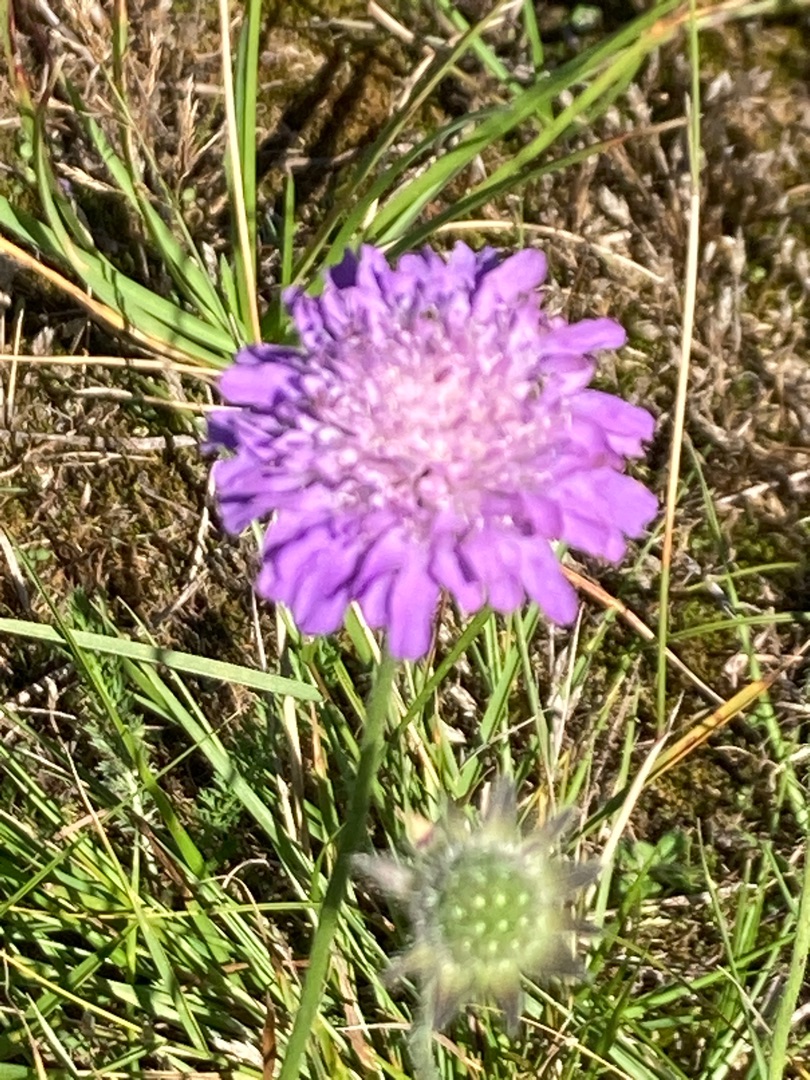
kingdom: Plantae
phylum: Tracheophyta
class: Magnoliopsida
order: Dipsacales
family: Caprifoliaceae
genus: Knautia
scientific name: Knautia arvensis
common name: Blåhat
